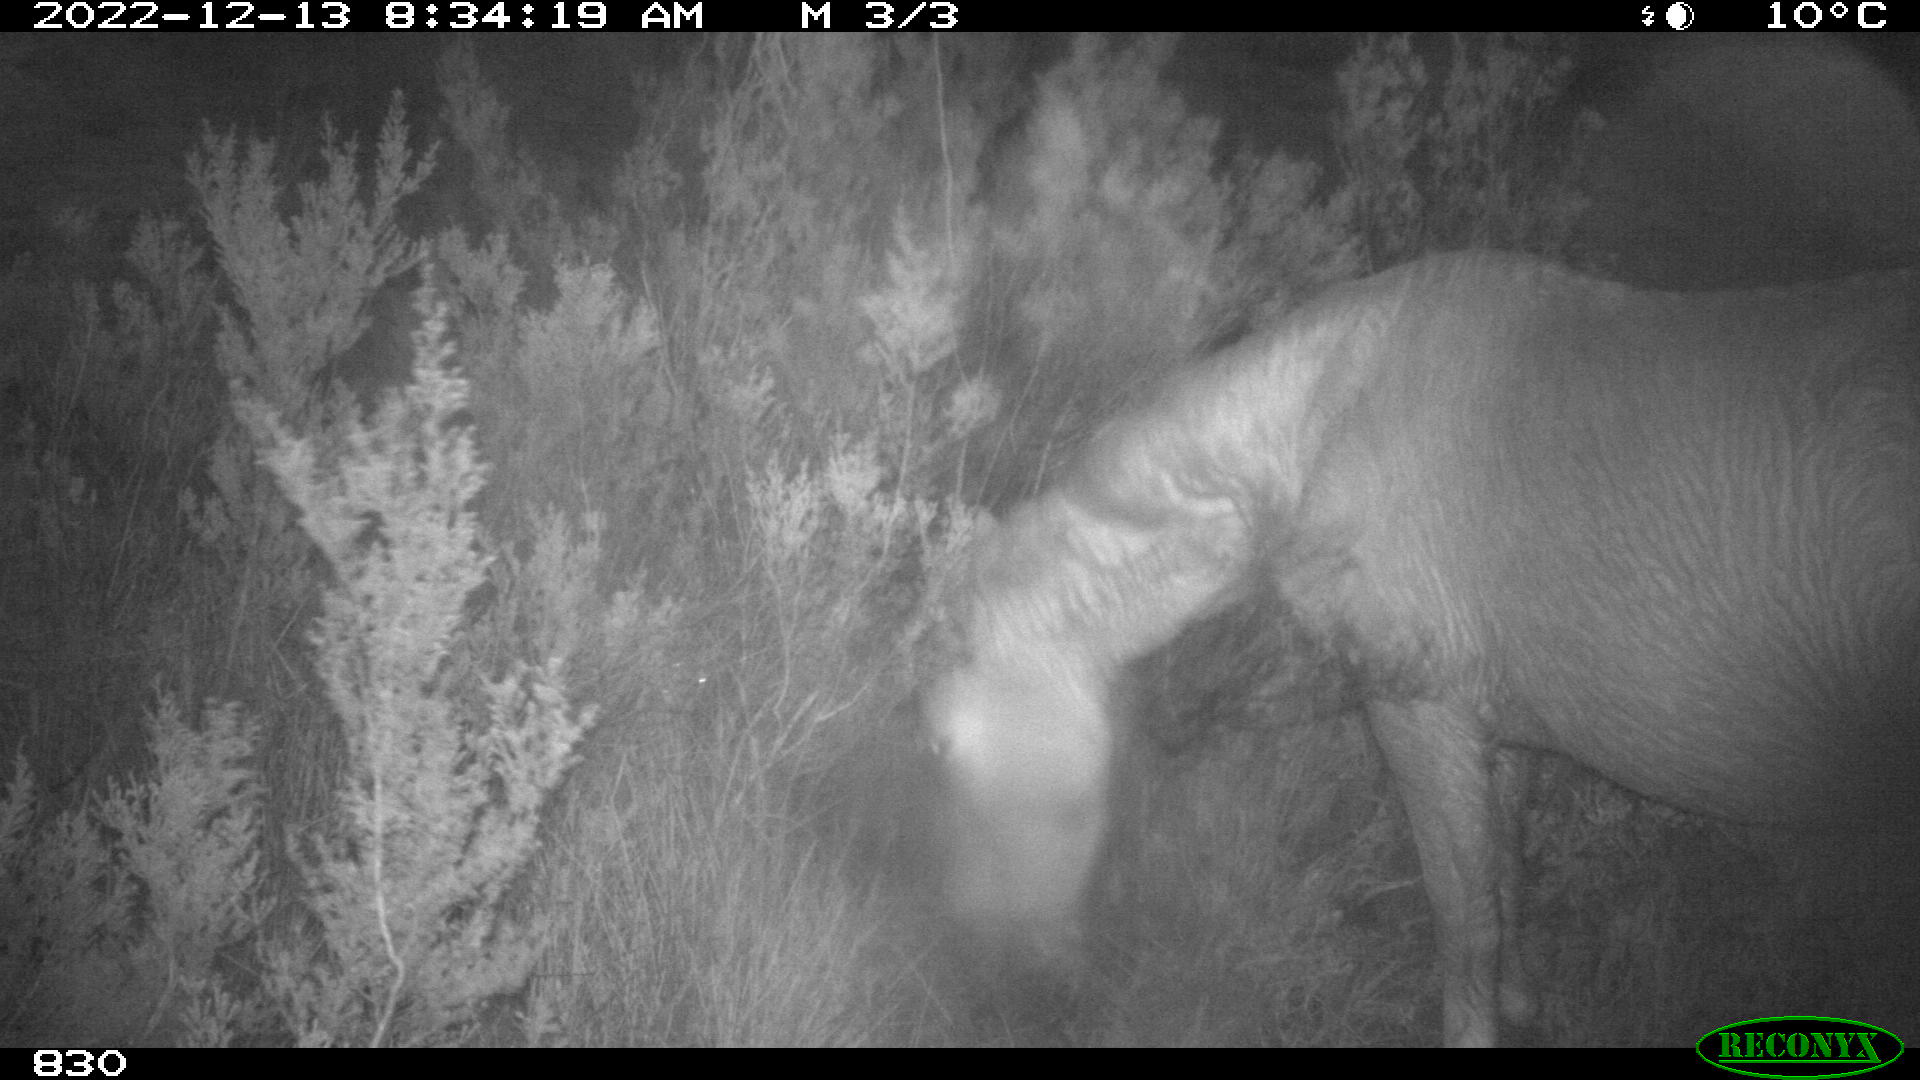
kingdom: Animalia
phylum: Chordata
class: Mammalia
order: Perissodactyla
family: Equidae
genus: Equus
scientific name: Equus caballus
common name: Horse
